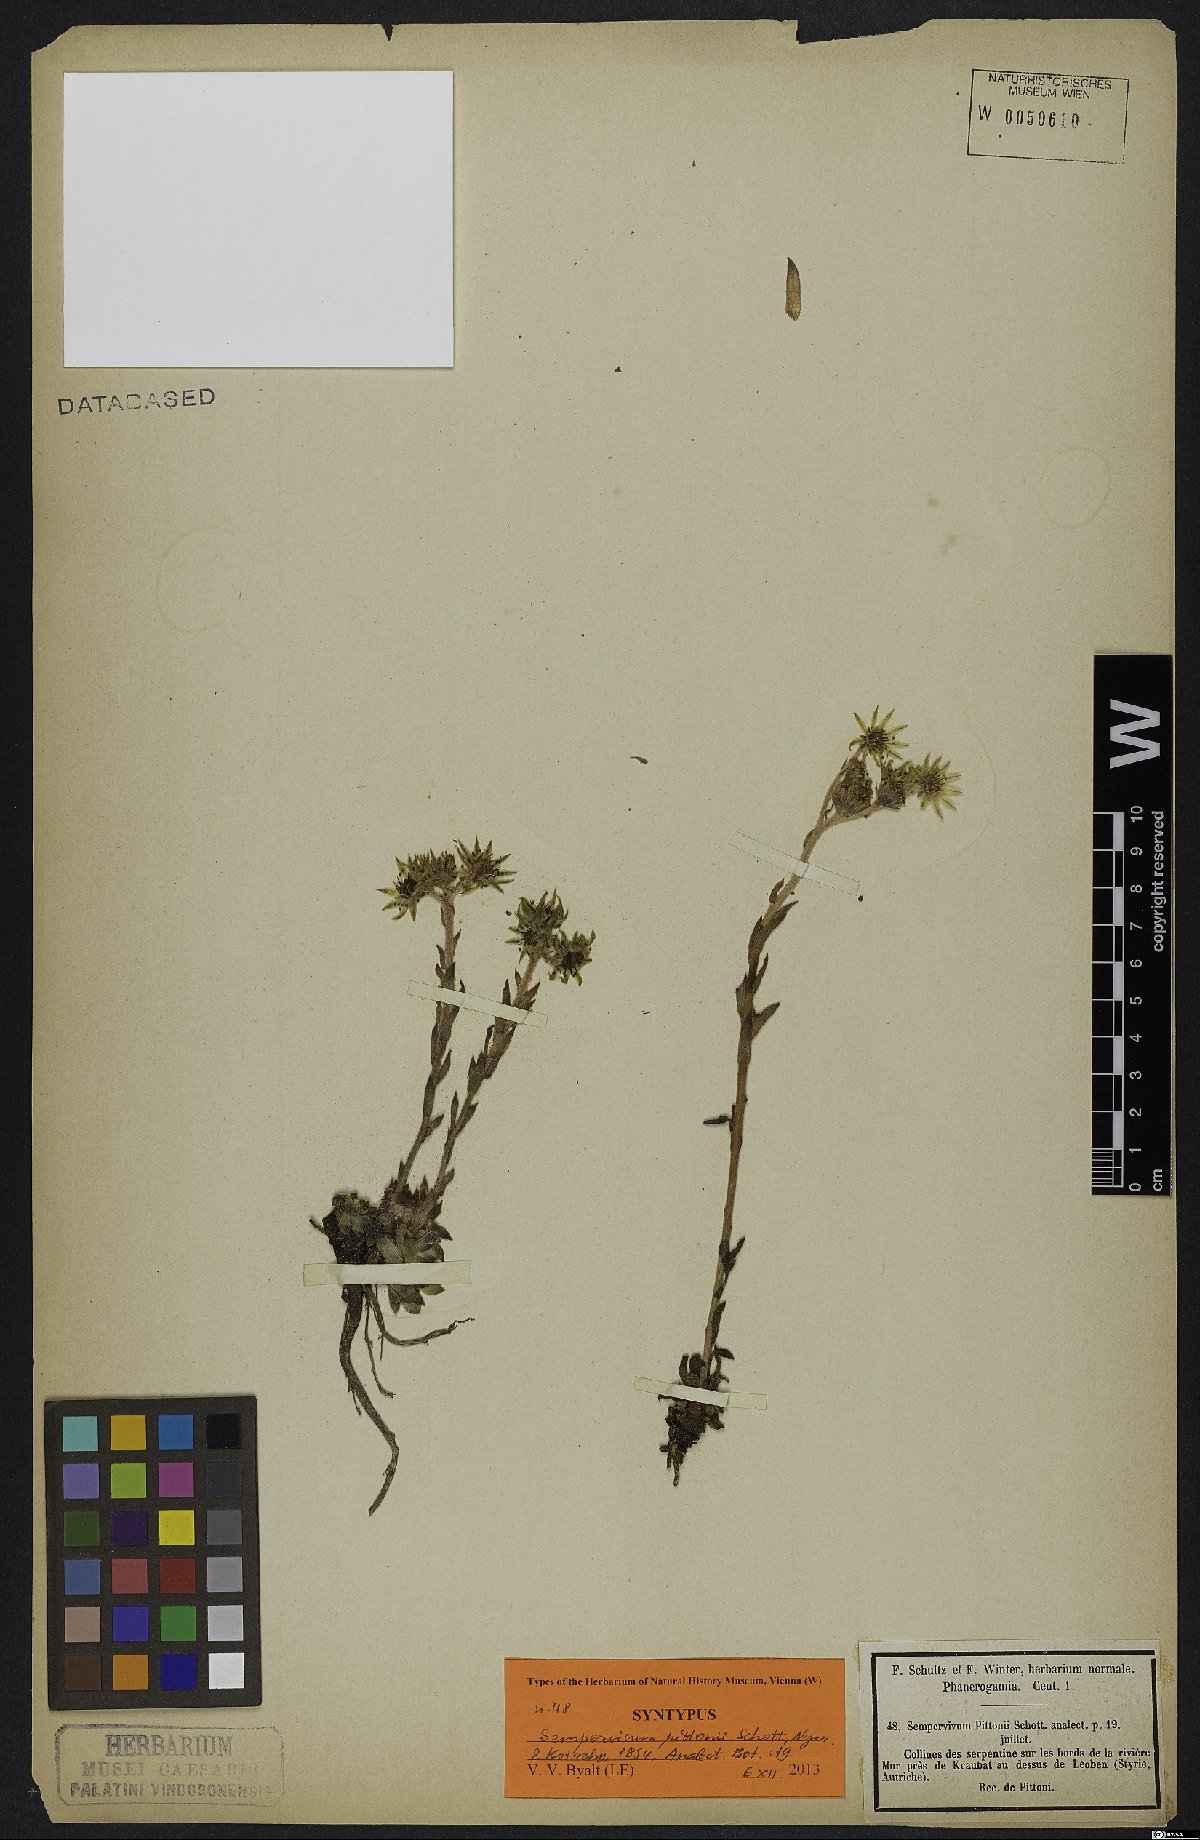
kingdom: Plantae
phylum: Tracheophyta
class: Magnoliopsida
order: Saxifragales
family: Crassulaceae
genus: Sempervivum
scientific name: Sempervivum pittonii
